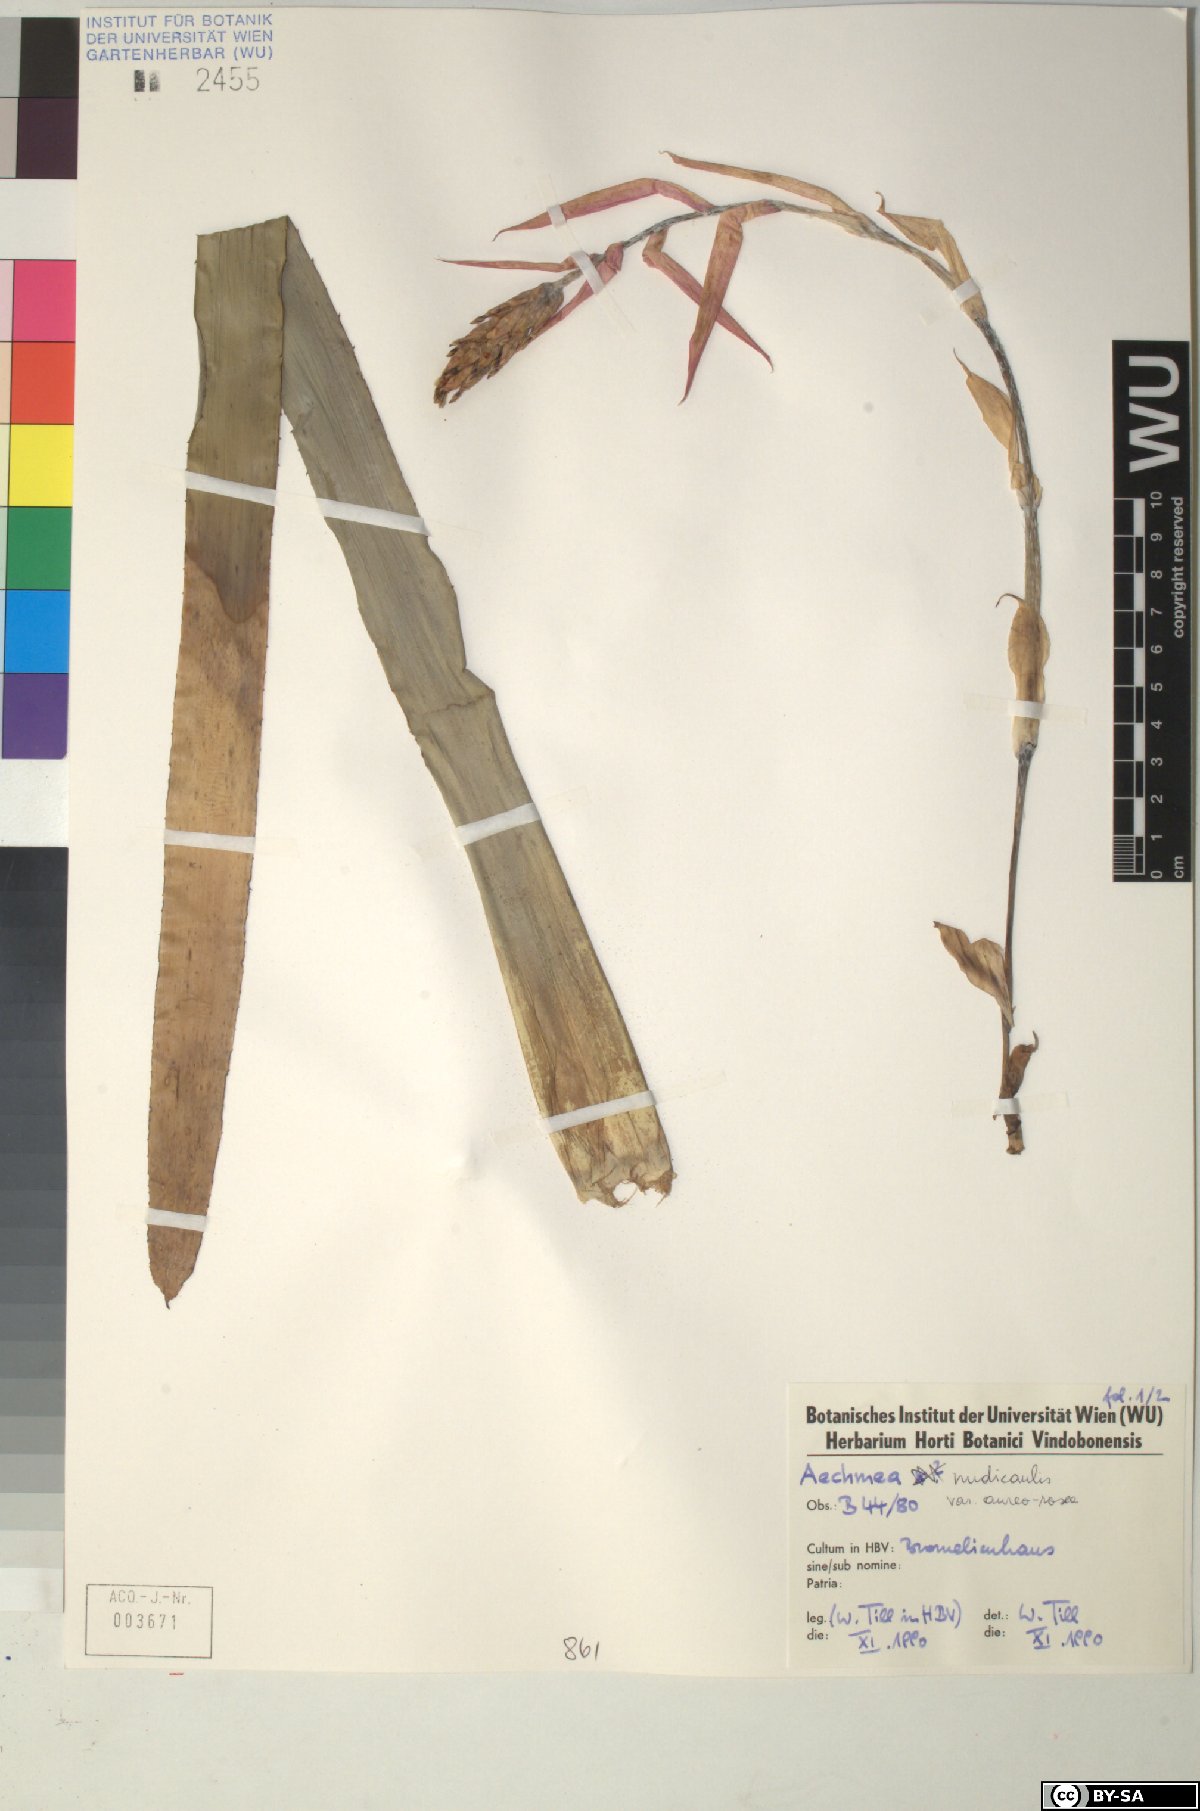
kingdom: Plantae
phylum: Tracheophyta
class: Liliopsida
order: Poales
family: Bromeliaceae
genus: Aechmea
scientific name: Aechmea nudicaulis
